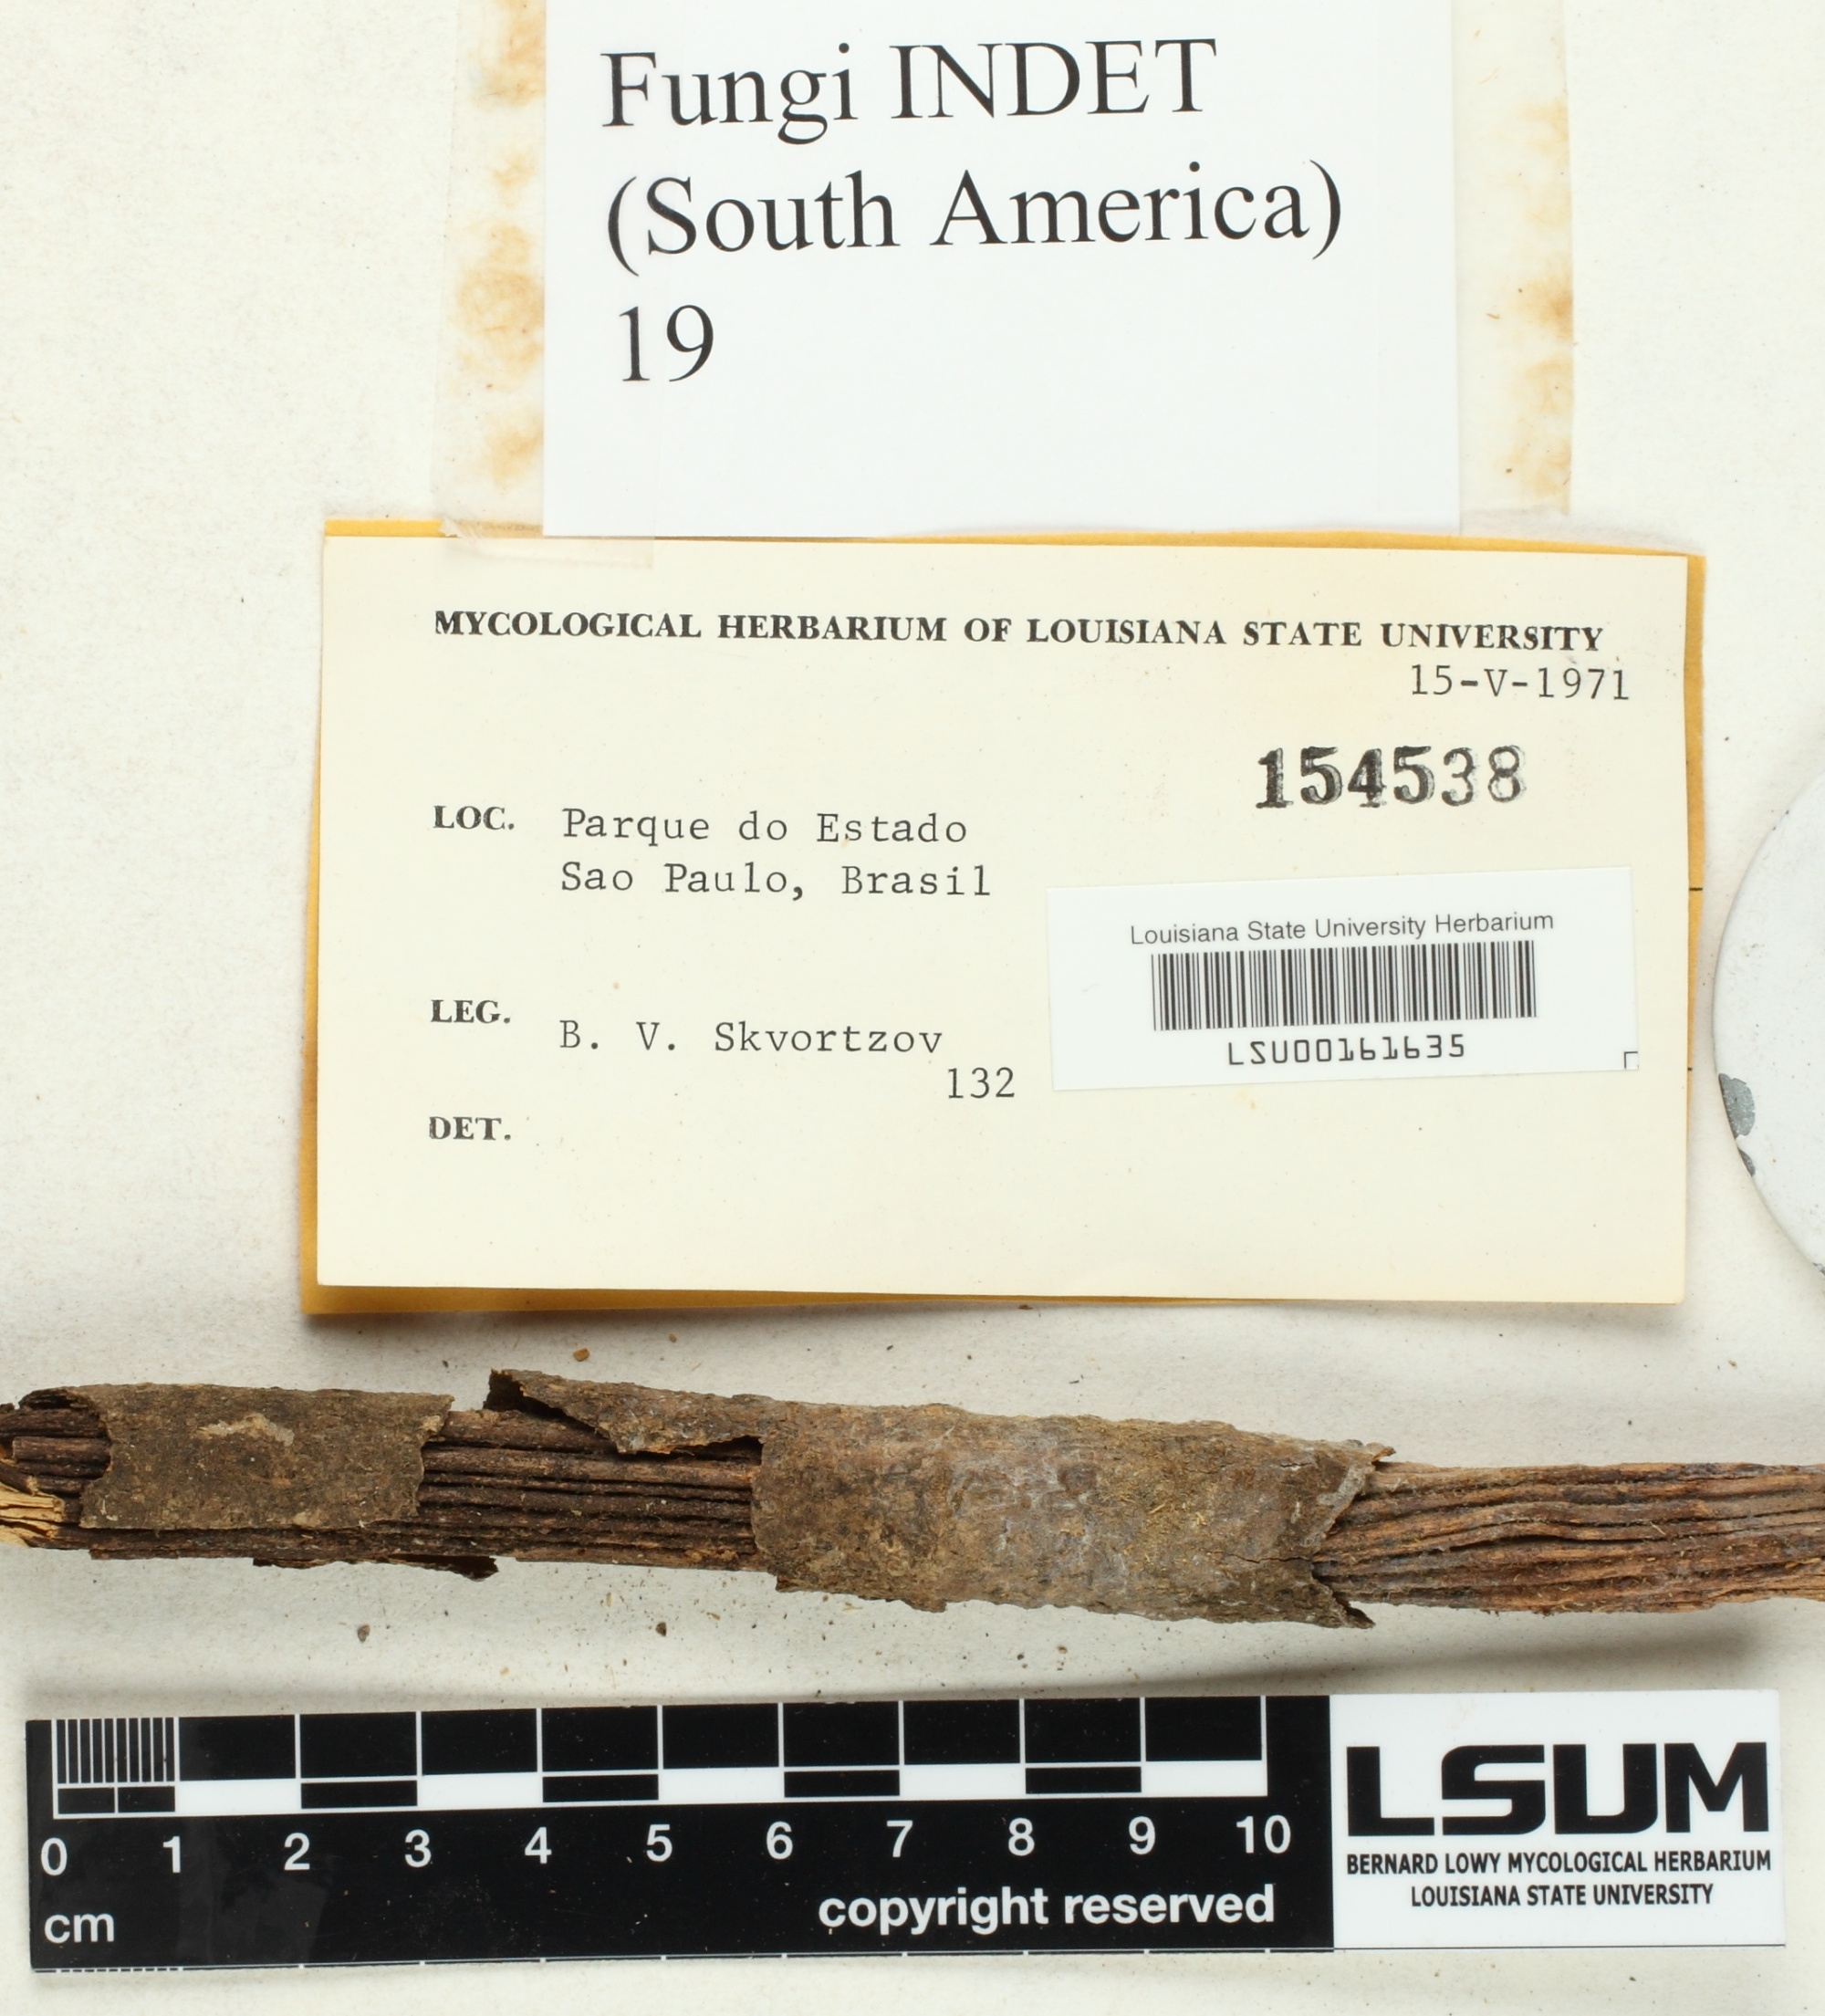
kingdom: Fungi
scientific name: Fungi
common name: Fungi
